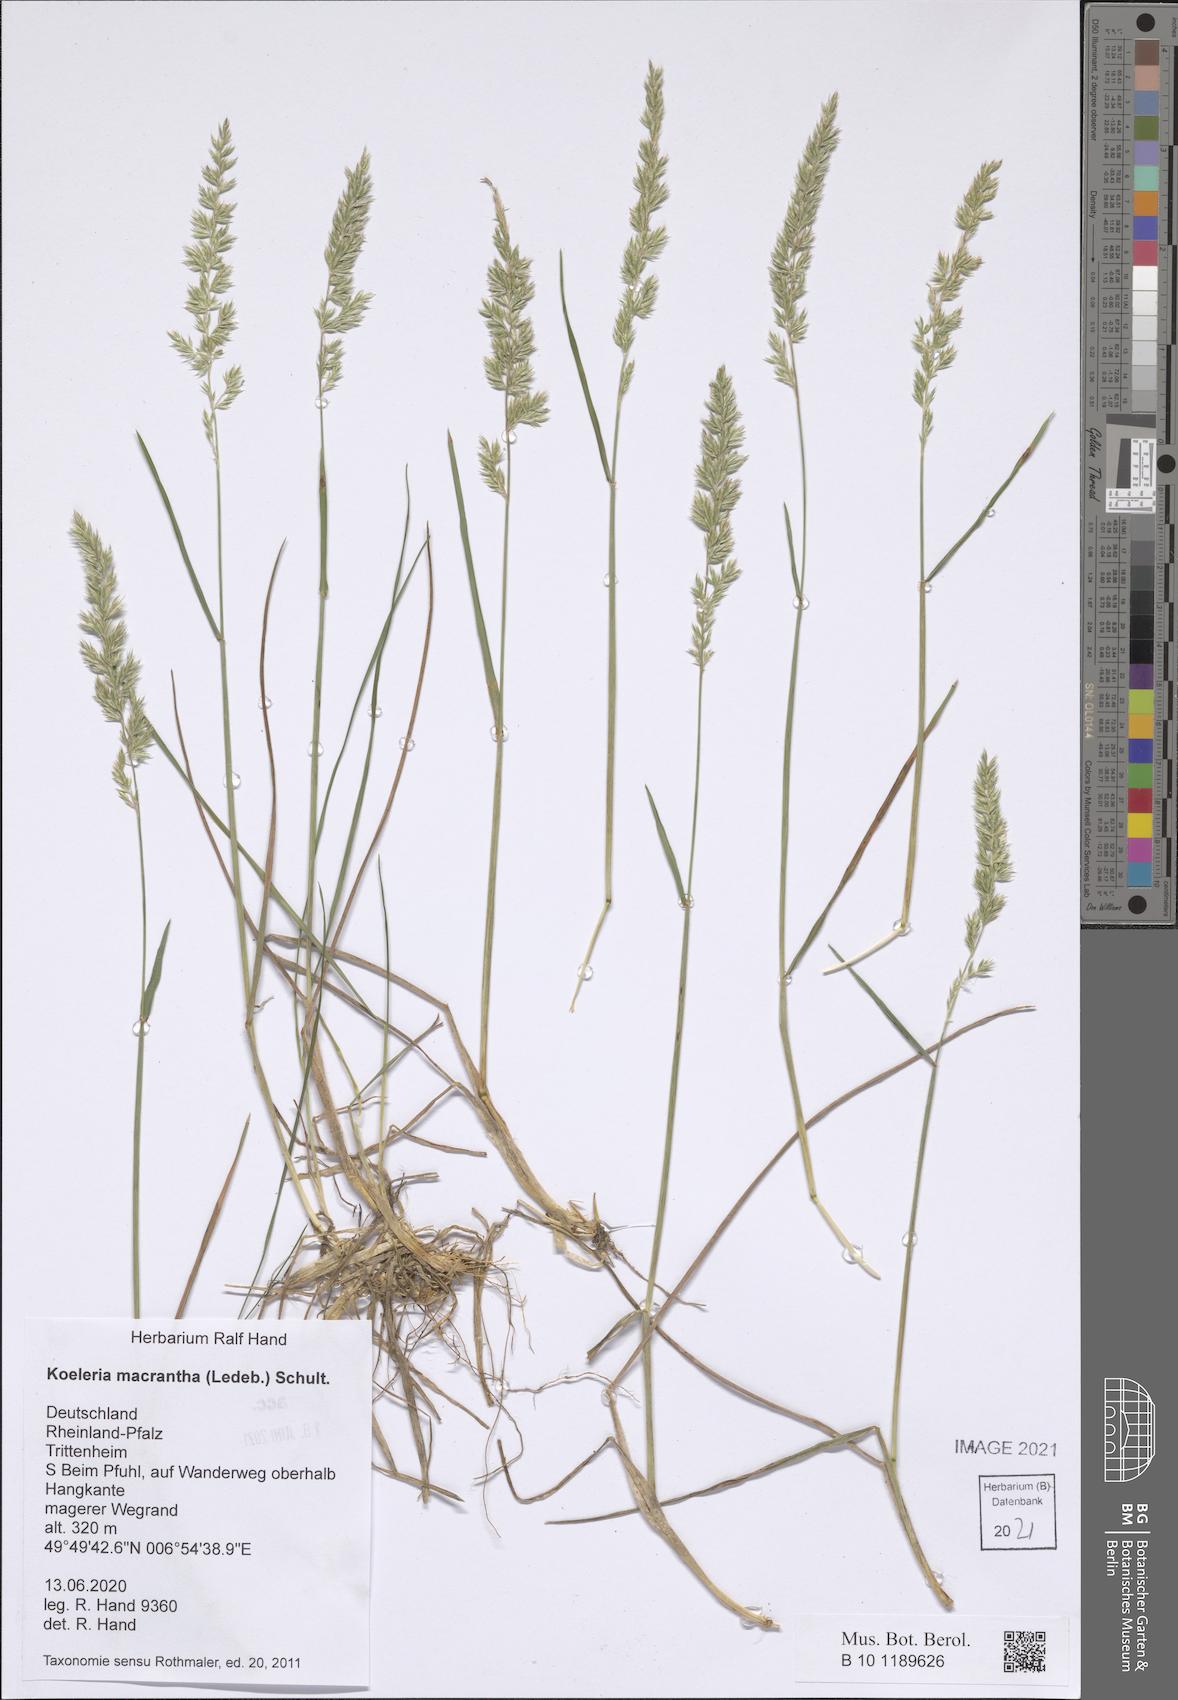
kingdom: Plantae
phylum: Tracheophyta
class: Liliopsida
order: Poales
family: Poaceae
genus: Koeleria
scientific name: Koeleria macrantha
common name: Crested hair-grass
